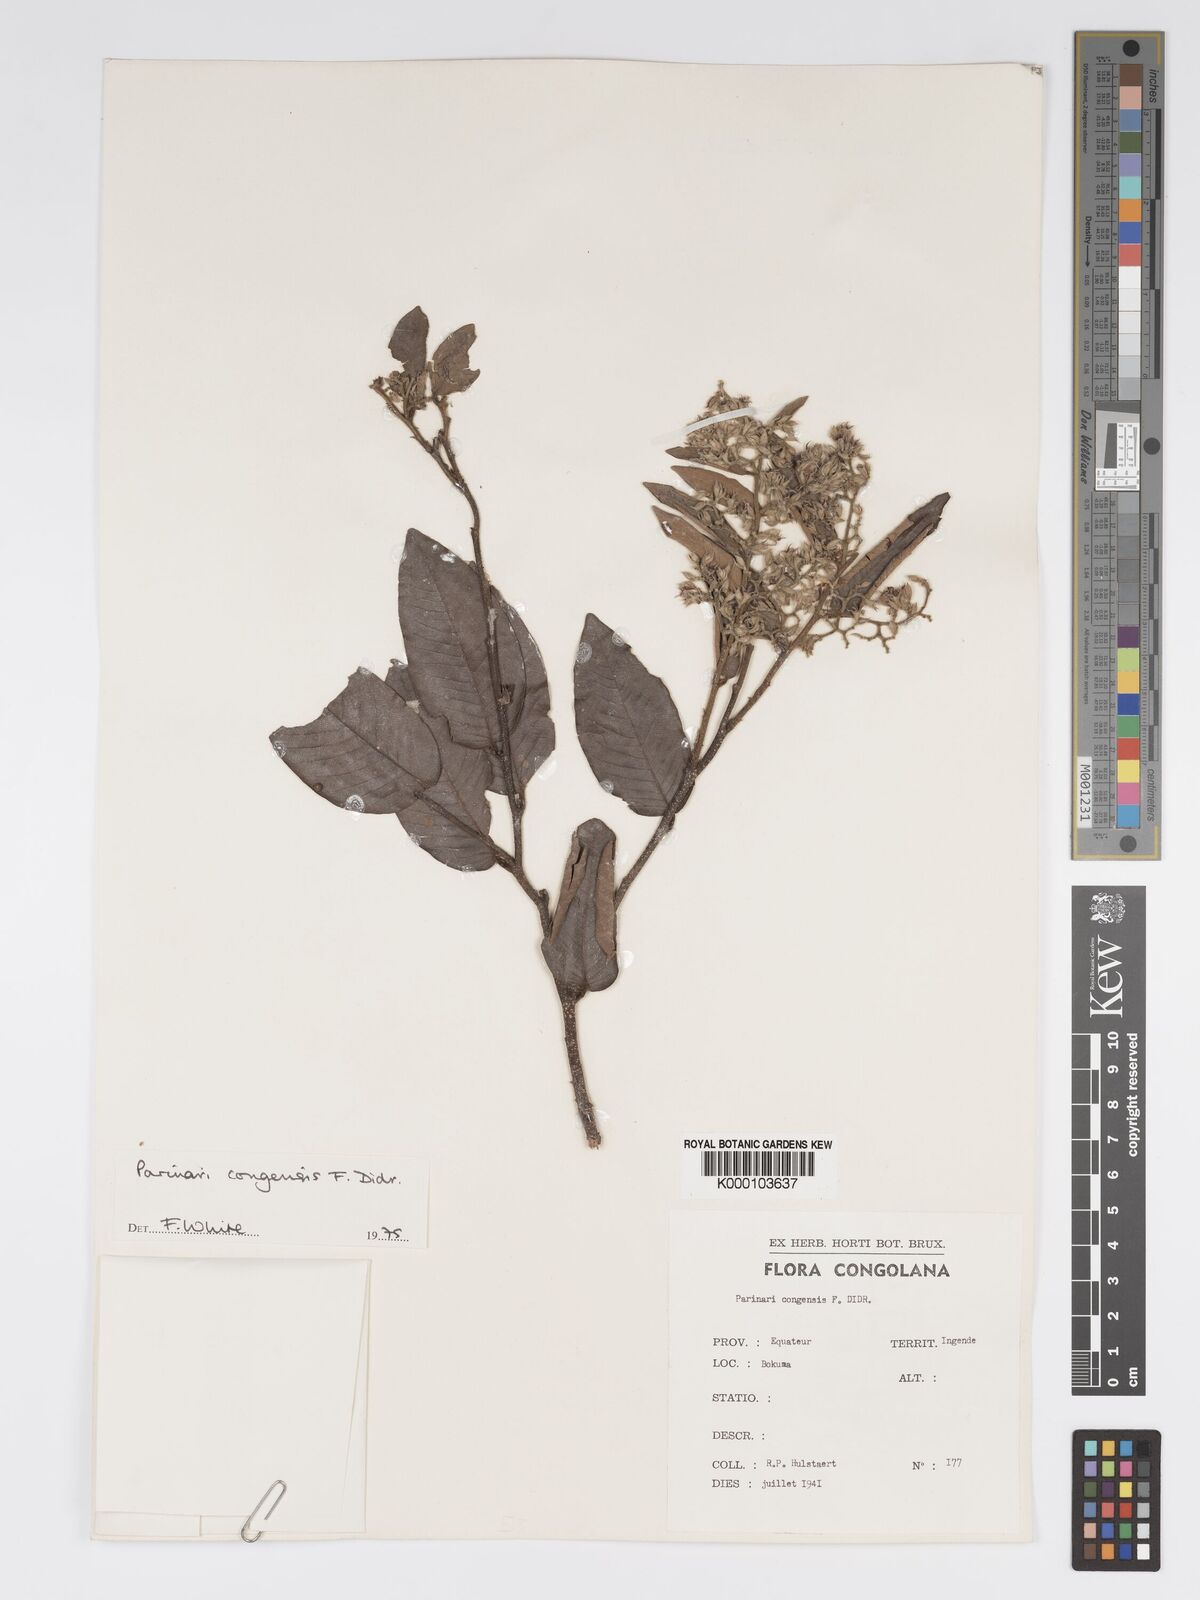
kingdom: Plantae
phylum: Tracheophyta
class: Magnoliopsida
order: Malpighiales
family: Chrysobalanaceae
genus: Parinari
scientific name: Parinari congensis
